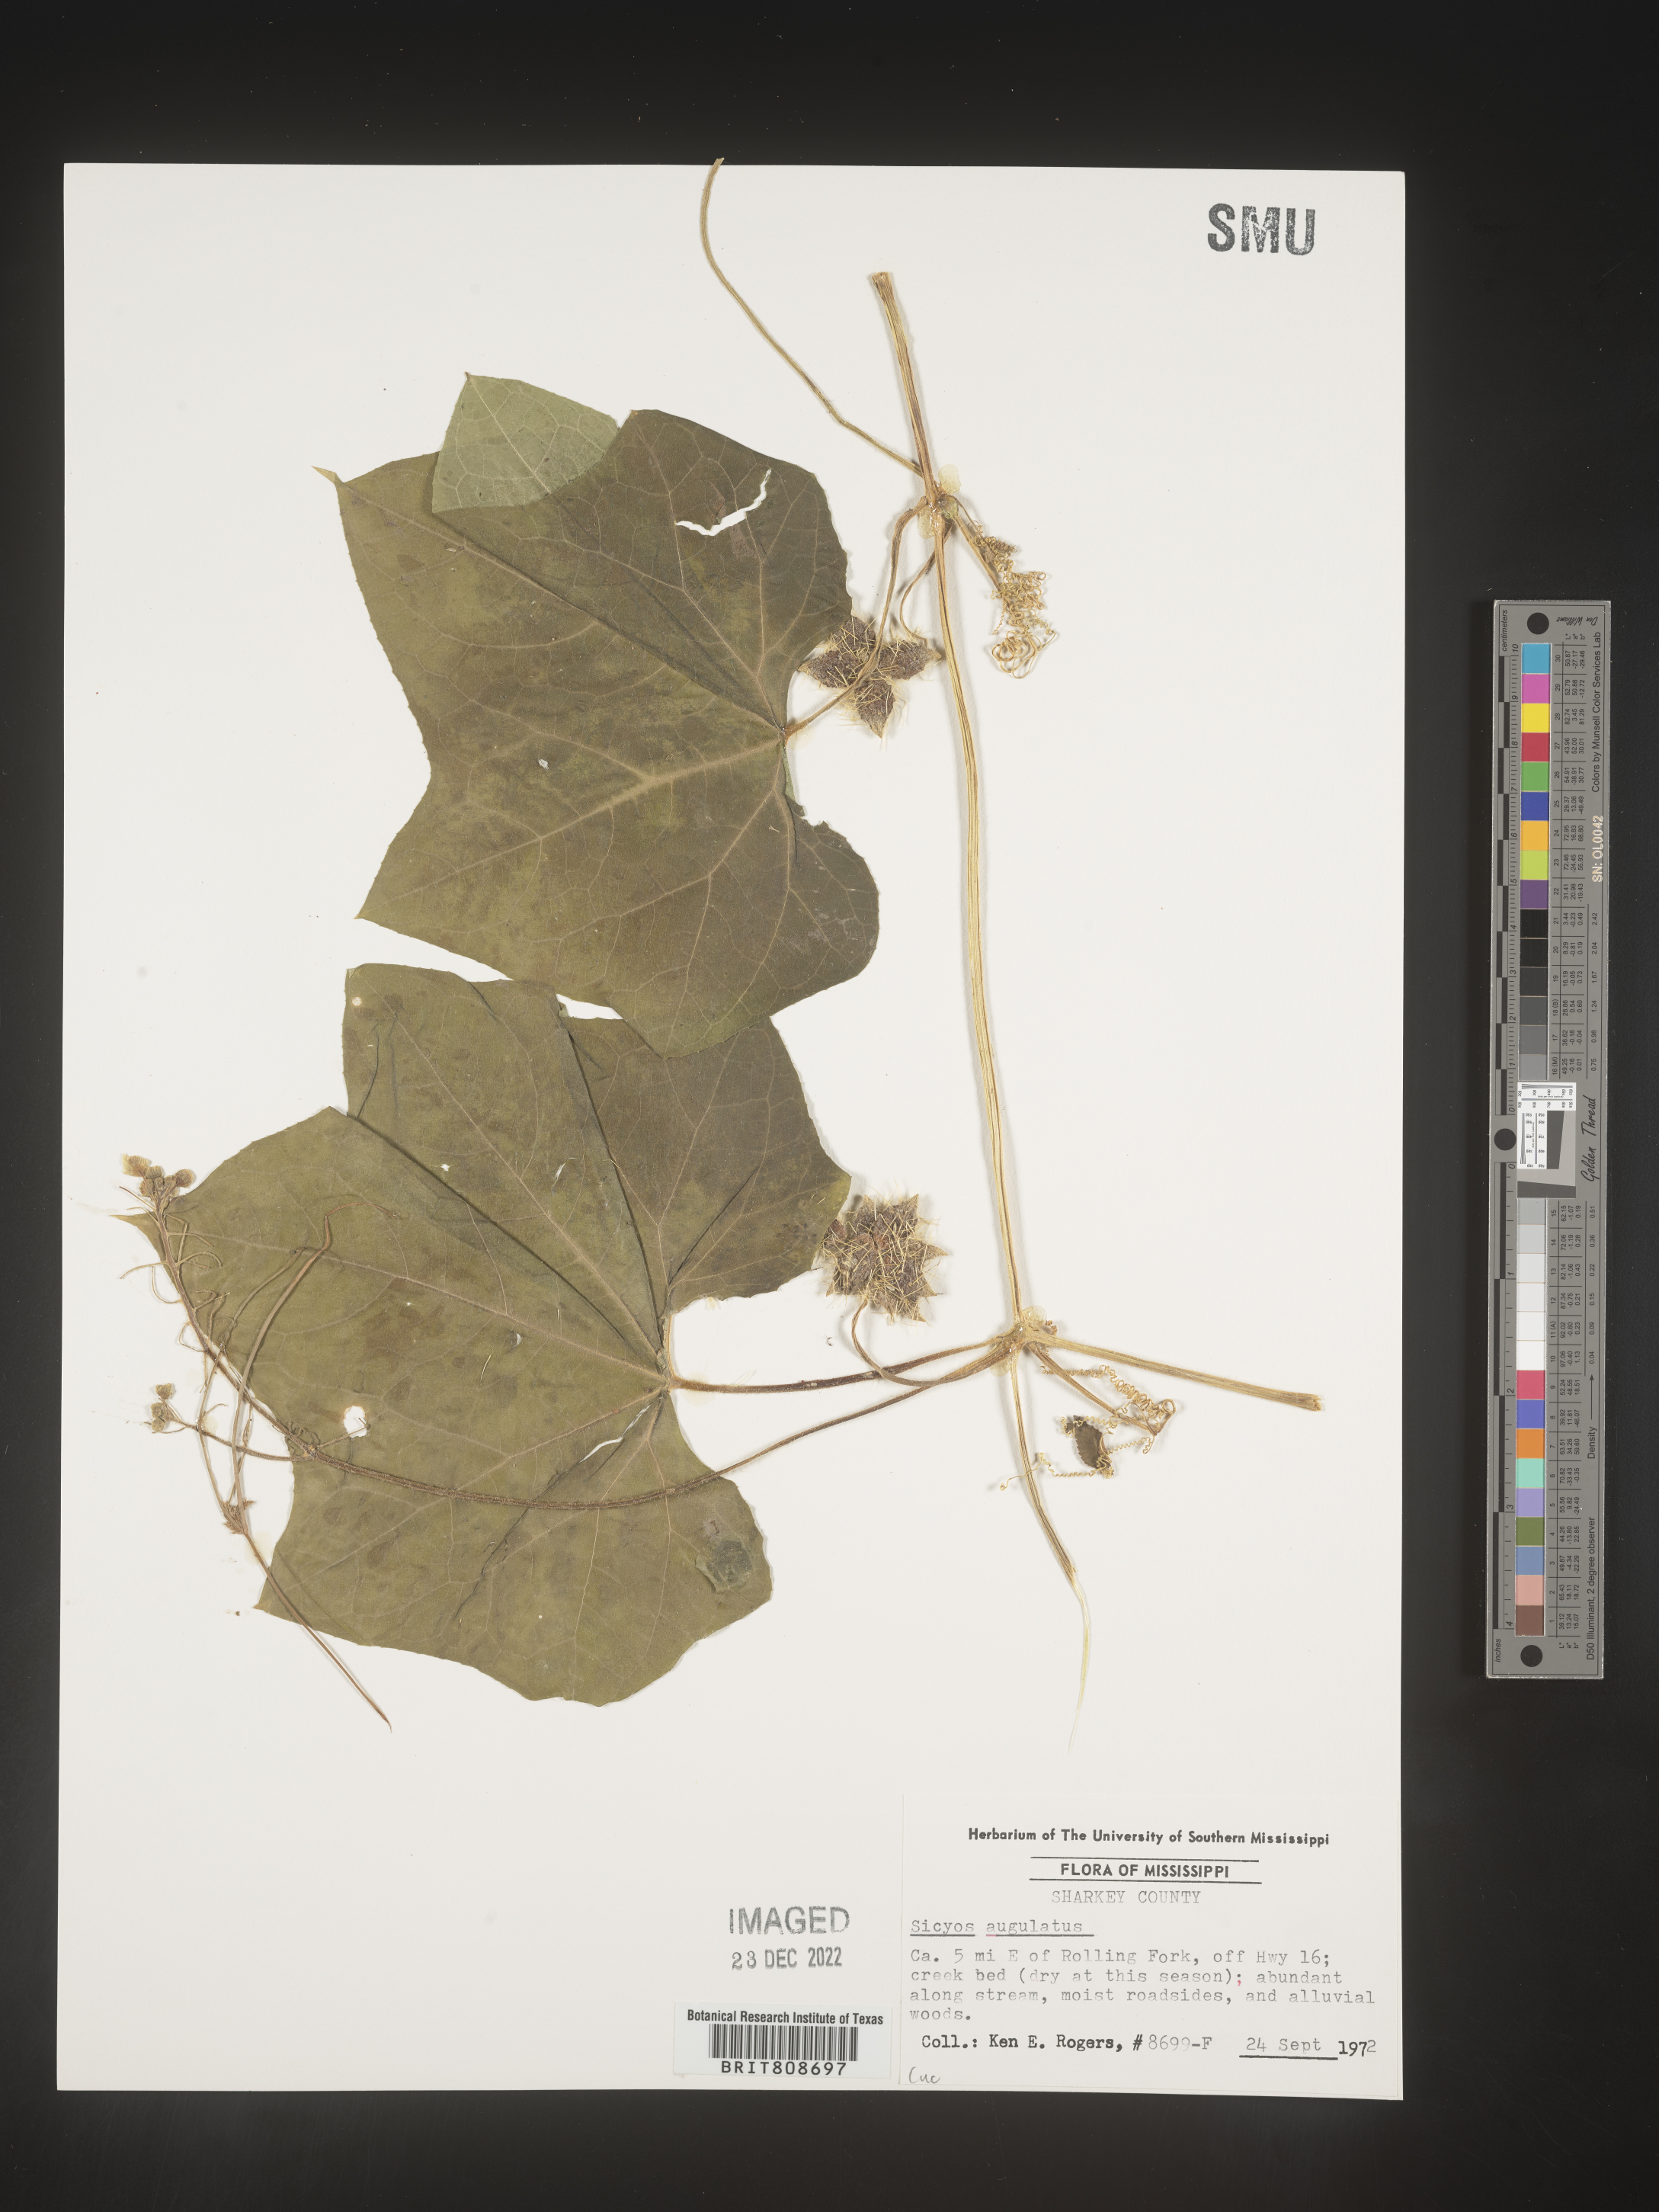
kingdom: Plantae
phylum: Tracheophyta
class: Magnoliopsida
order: Cucurbitales
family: Cucurbitaceae
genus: Sicyos
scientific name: Sicyos angulatus
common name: Angled burr cucumber
